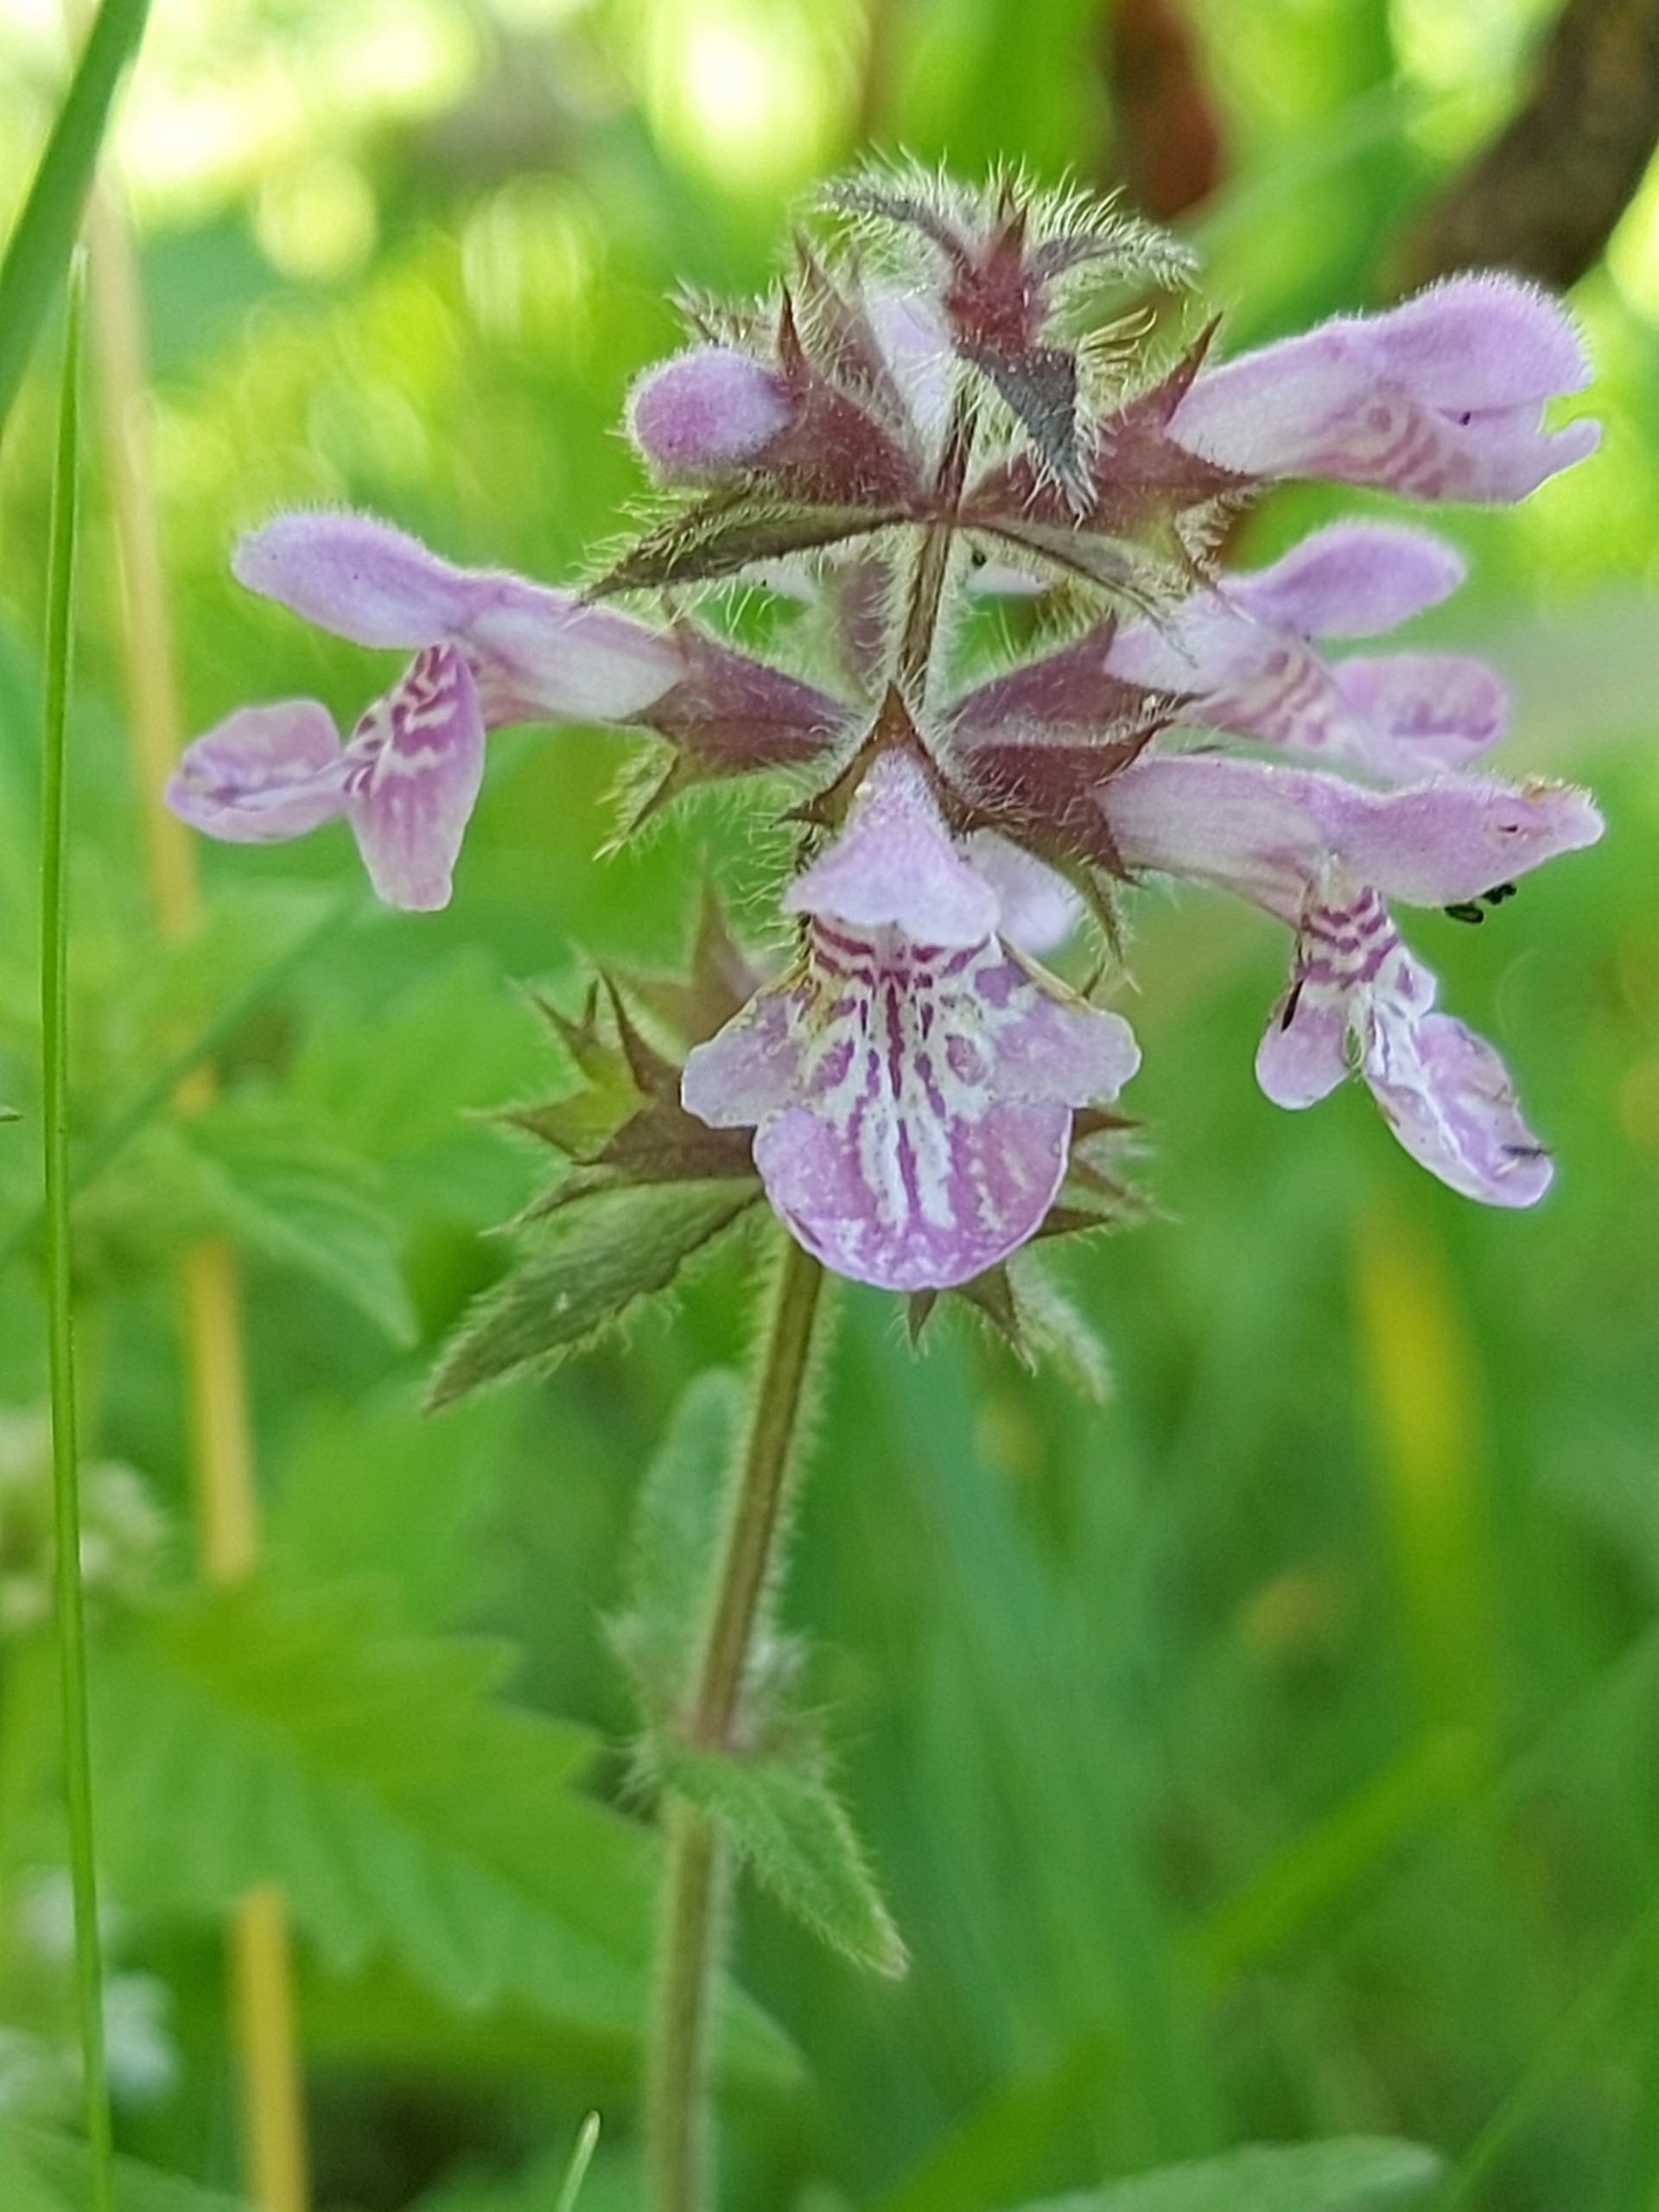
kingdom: Plantae
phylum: Tracheophyta
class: Magnoliopsida
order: Lamiales
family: Lamiaceae
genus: Stachys
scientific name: Stachys palustris
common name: Kær-galtetand
